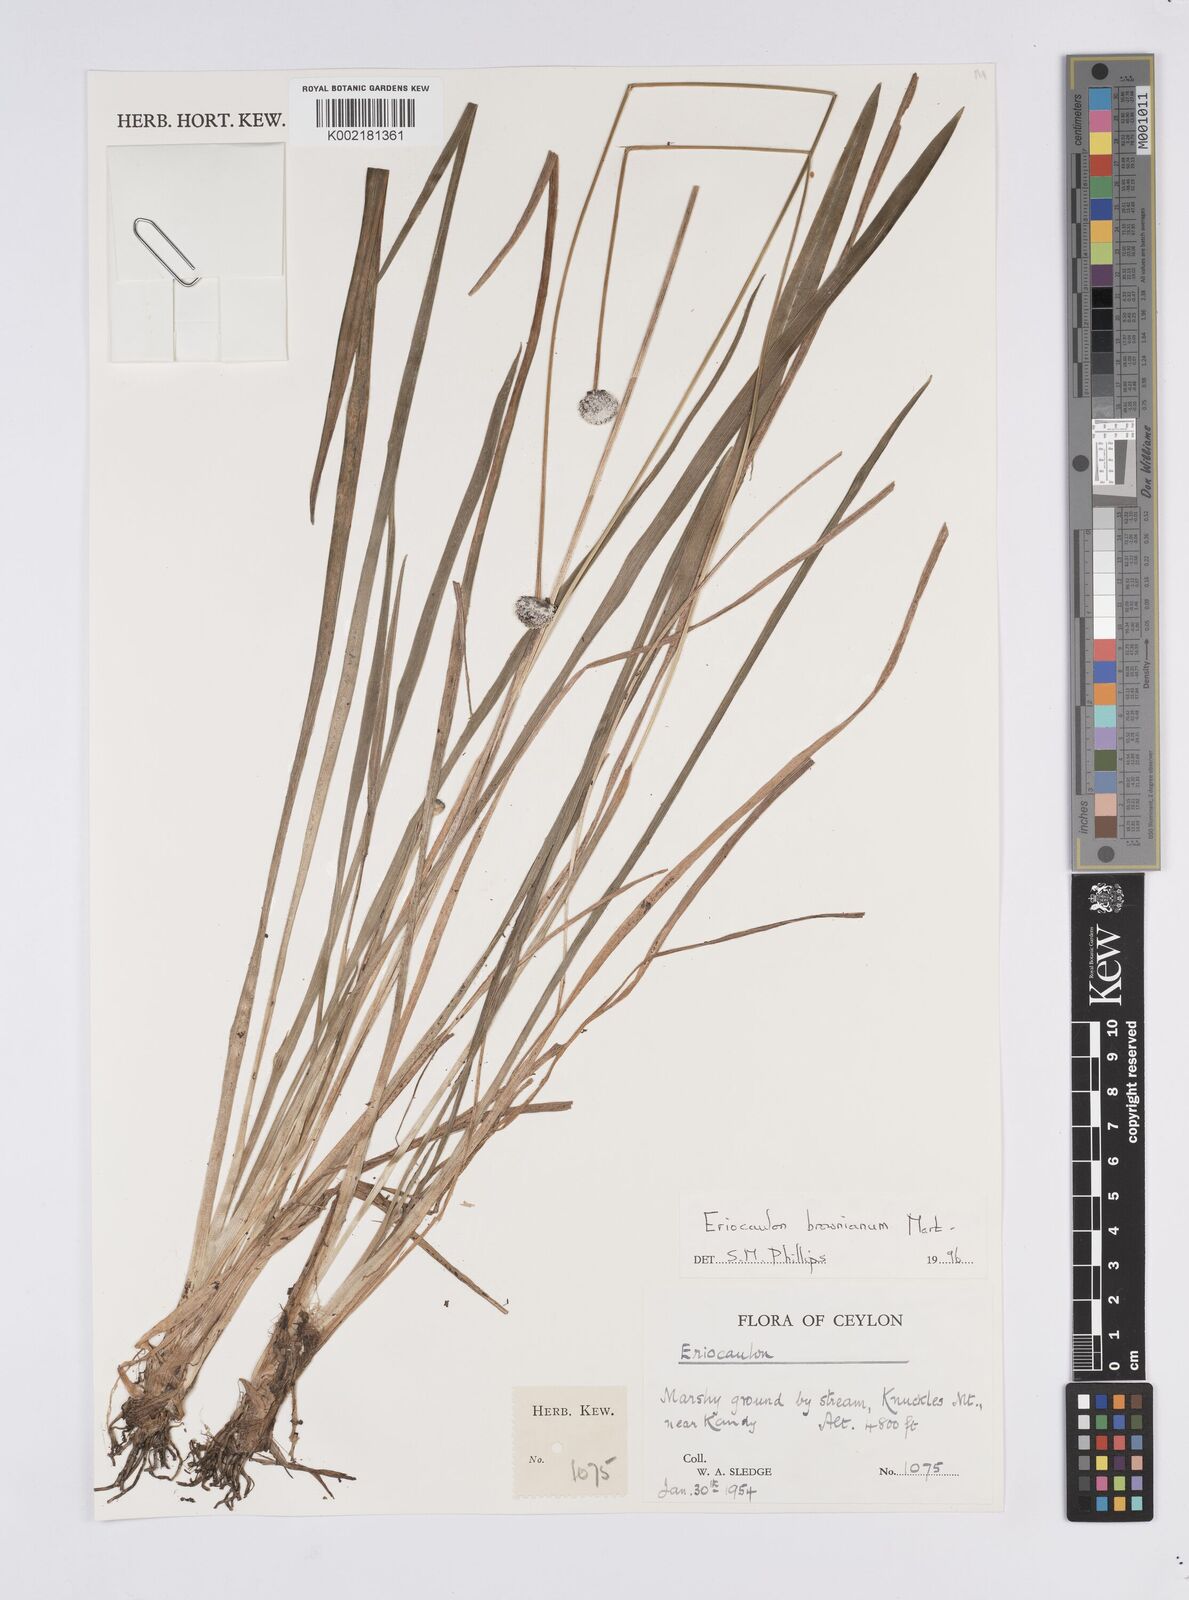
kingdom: Plantae
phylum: Tracheophyta
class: Liliopsida
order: Poales
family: Eriocaulaceae
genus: Eriocaulon
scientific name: Eriocaulon brownianum
